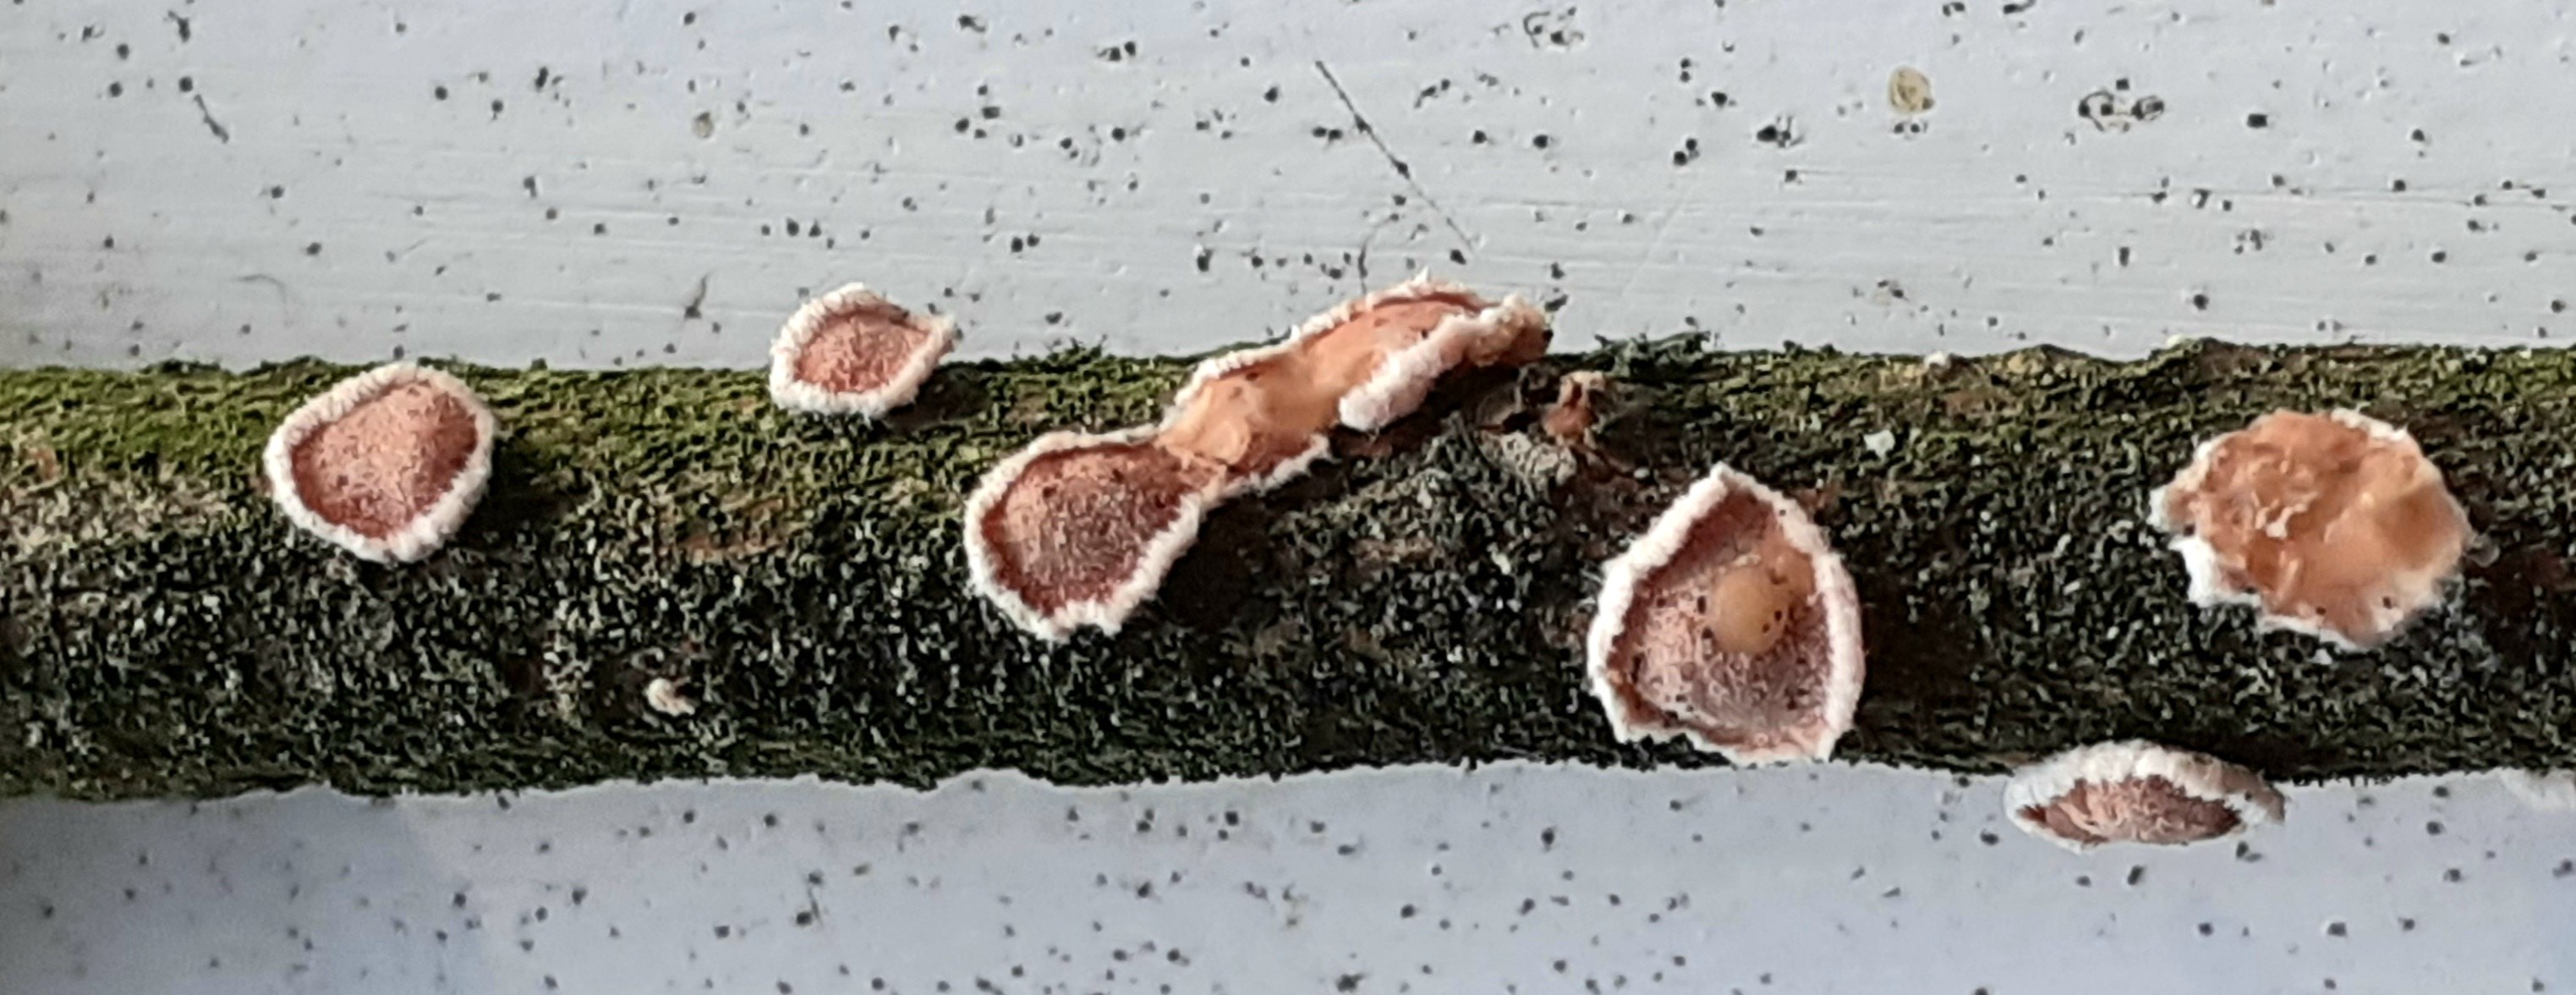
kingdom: Fungi
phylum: Basidiomycota
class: Agaricomycetes
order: Russulales
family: Stereaceae
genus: Aleurodiscus
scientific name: Aleurodiscus amorphus
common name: orange skiveskorpe
